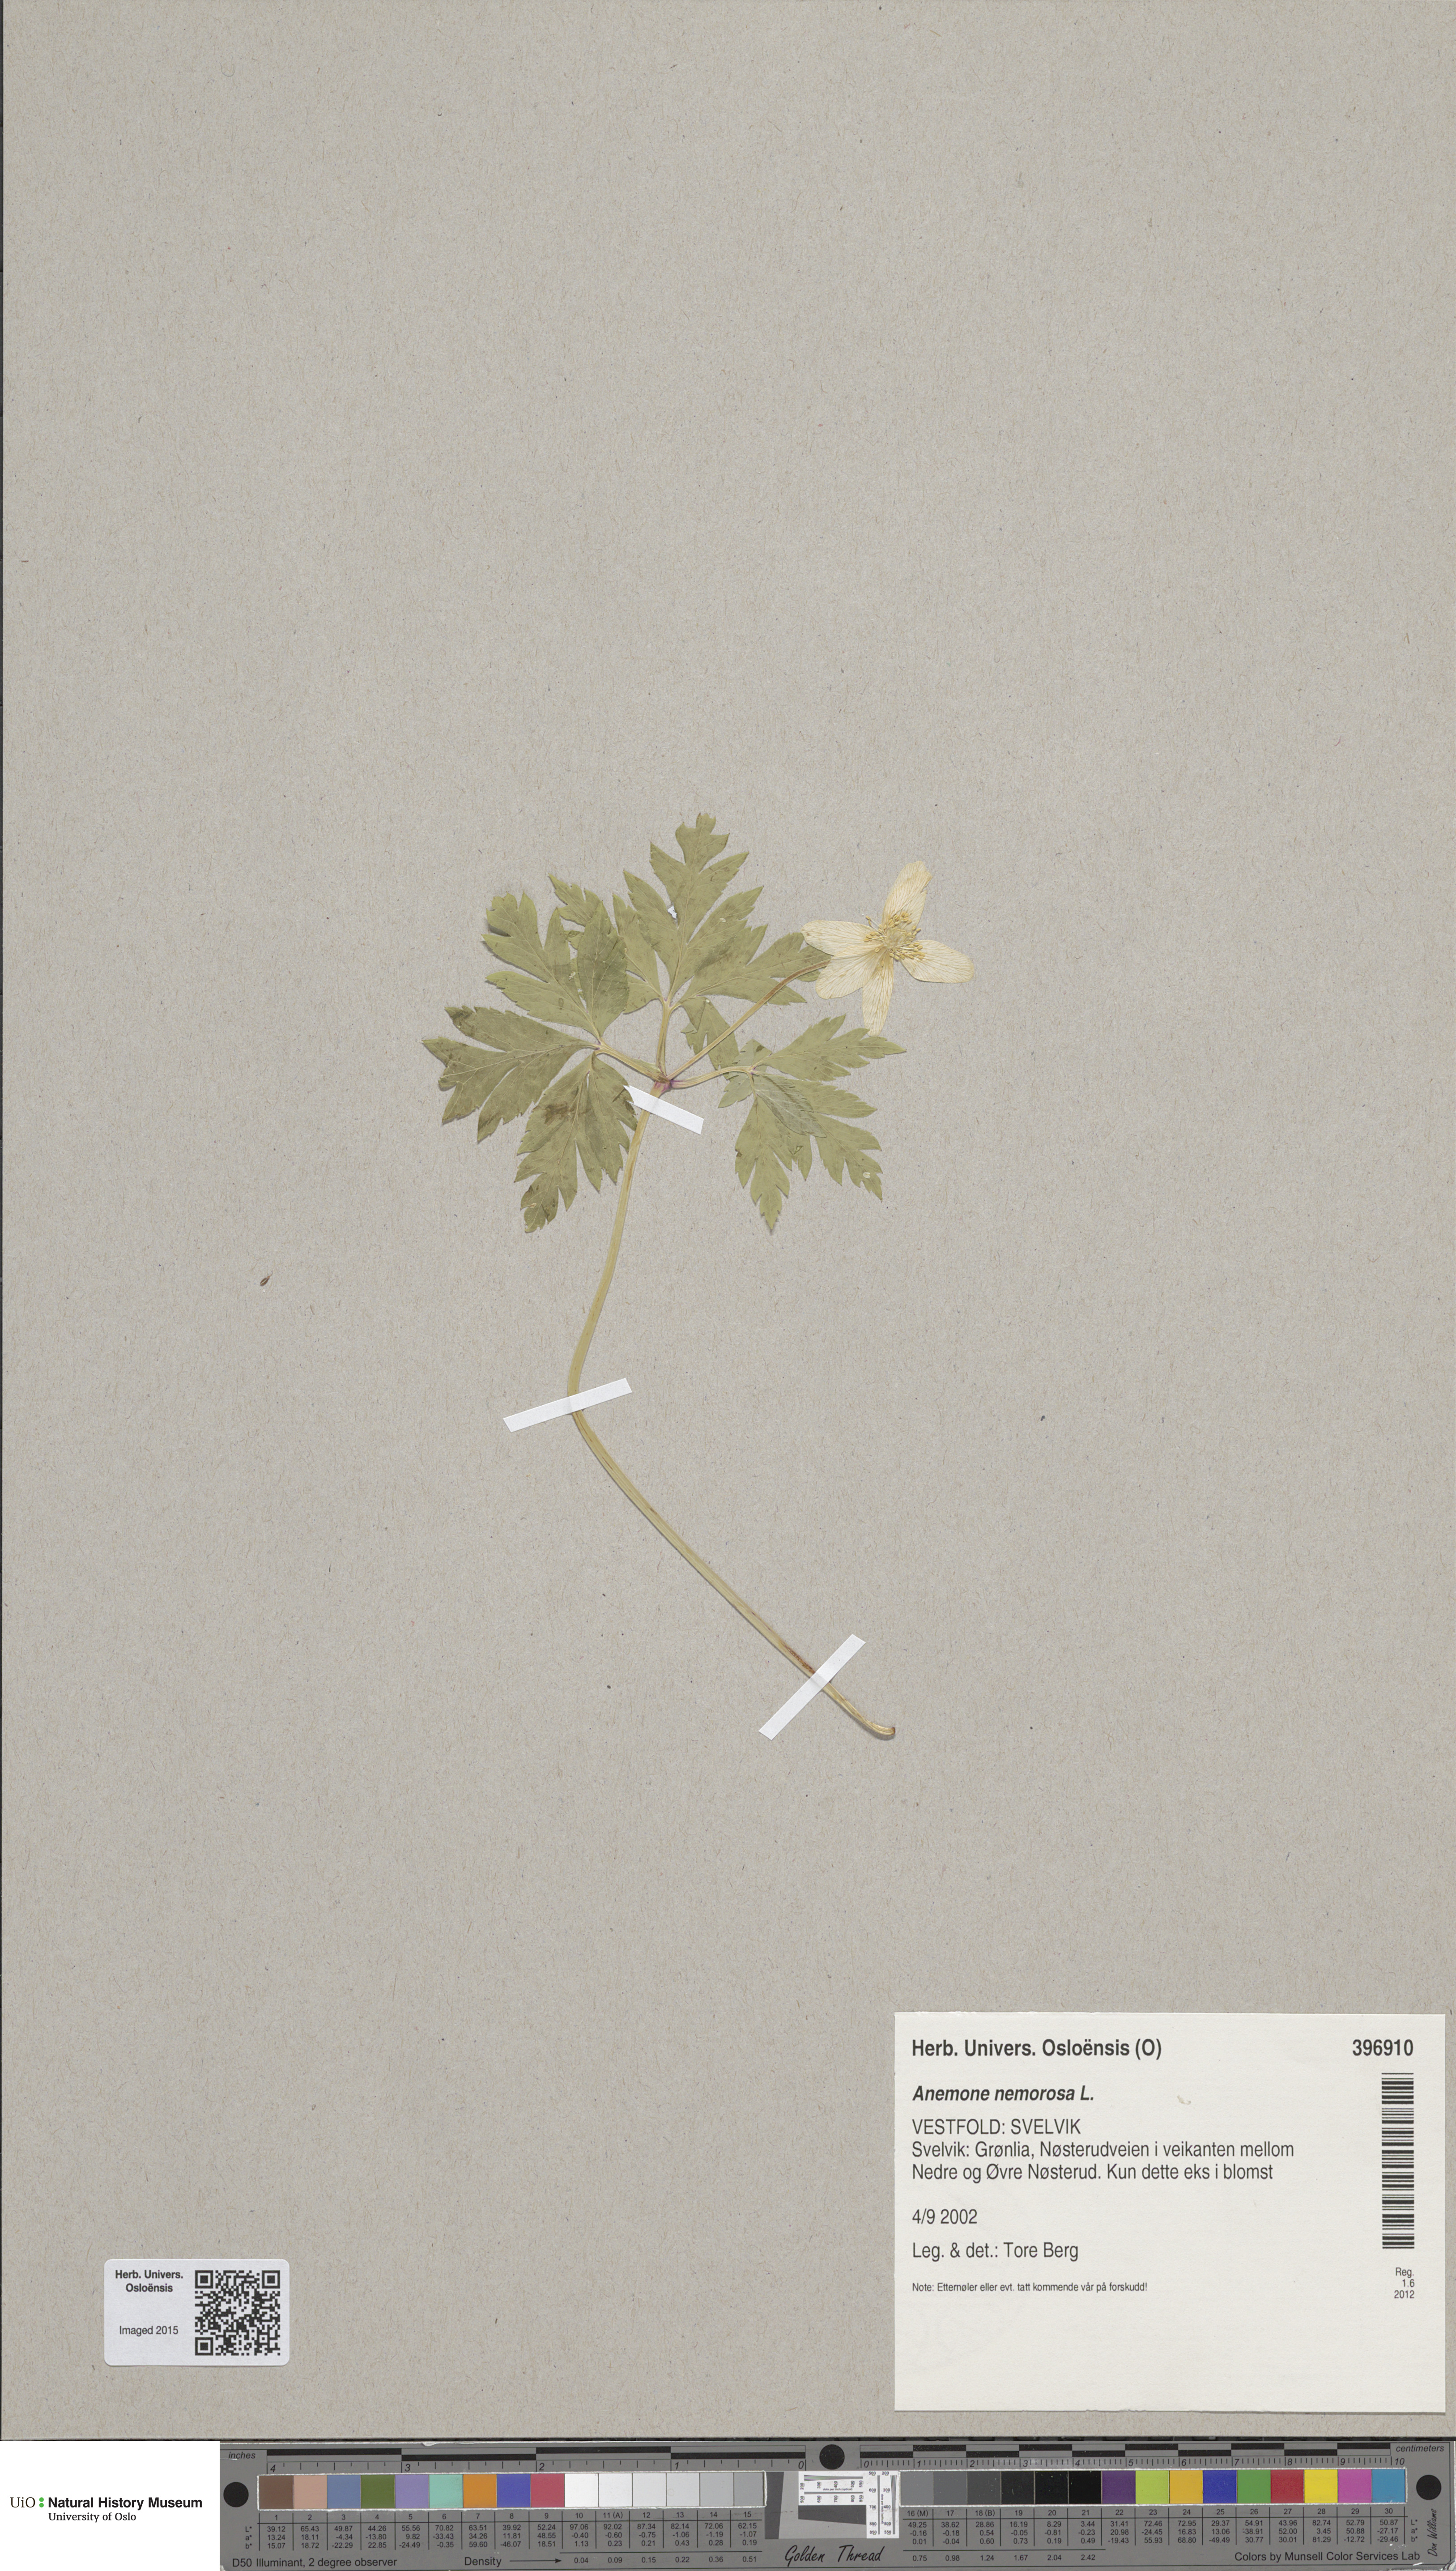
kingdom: Plantae
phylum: Tracheophyta
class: Magnoliopsida
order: Ranunculales
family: Ranunculaceae
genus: Anemone
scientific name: Anemone nemorosa
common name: Wood anemone
